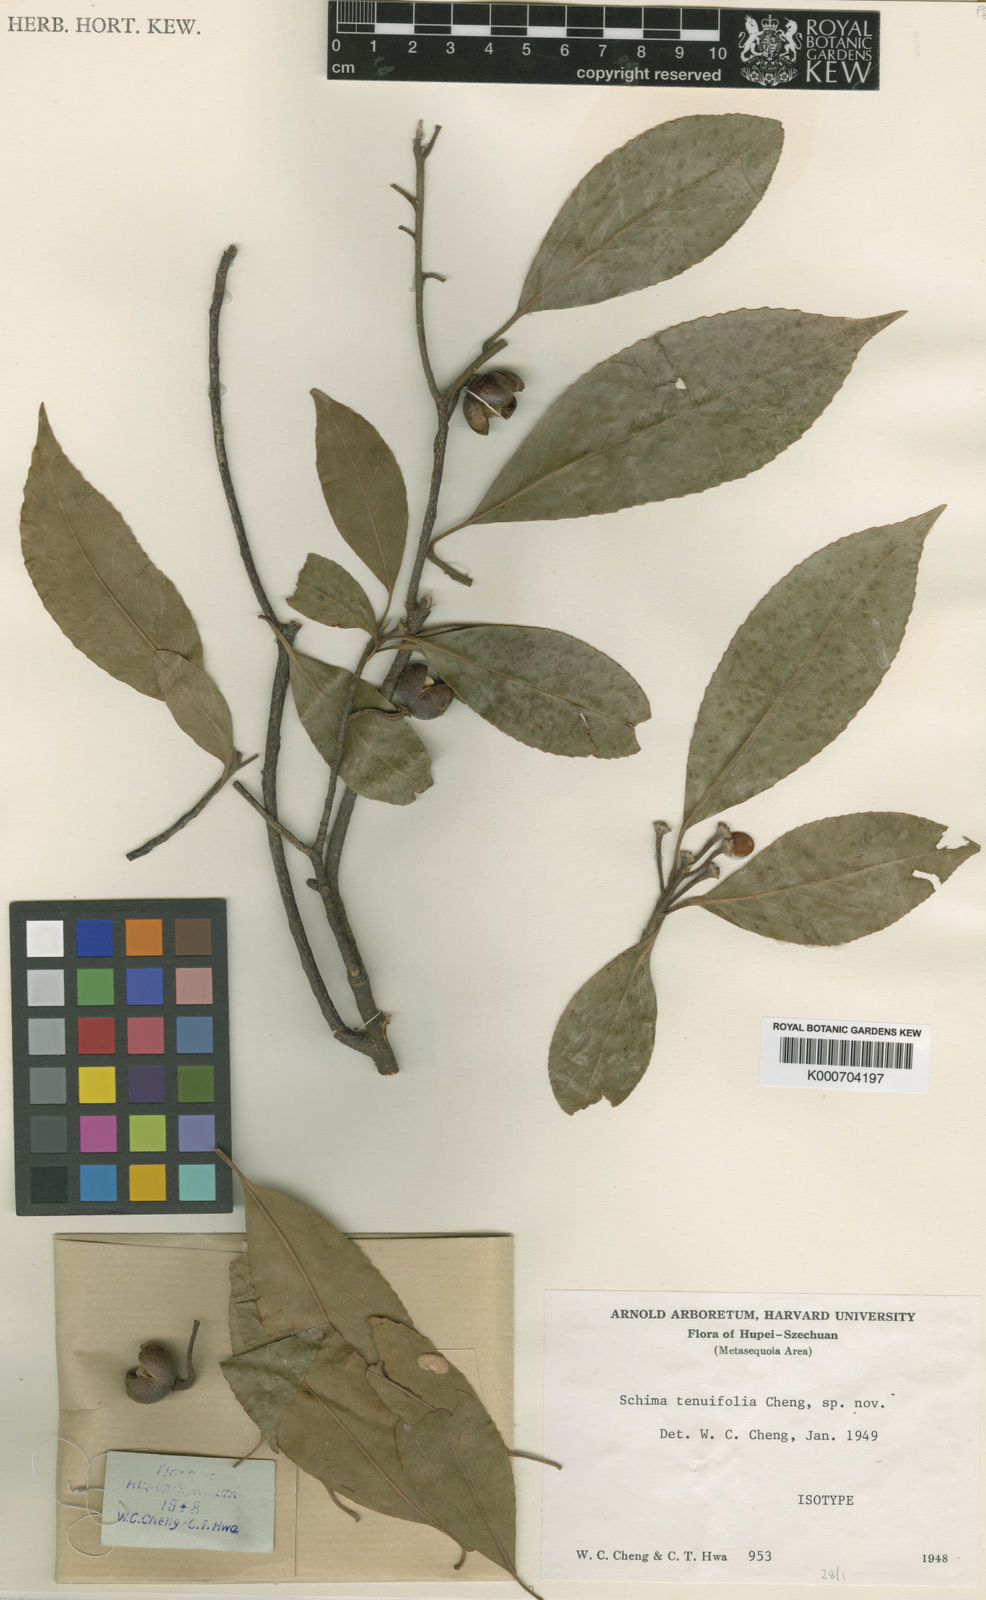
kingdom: Plantae
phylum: Tracheophyta
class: Magnoliopsida
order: Ericales
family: Theaceae
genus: Schima
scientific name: Schima
